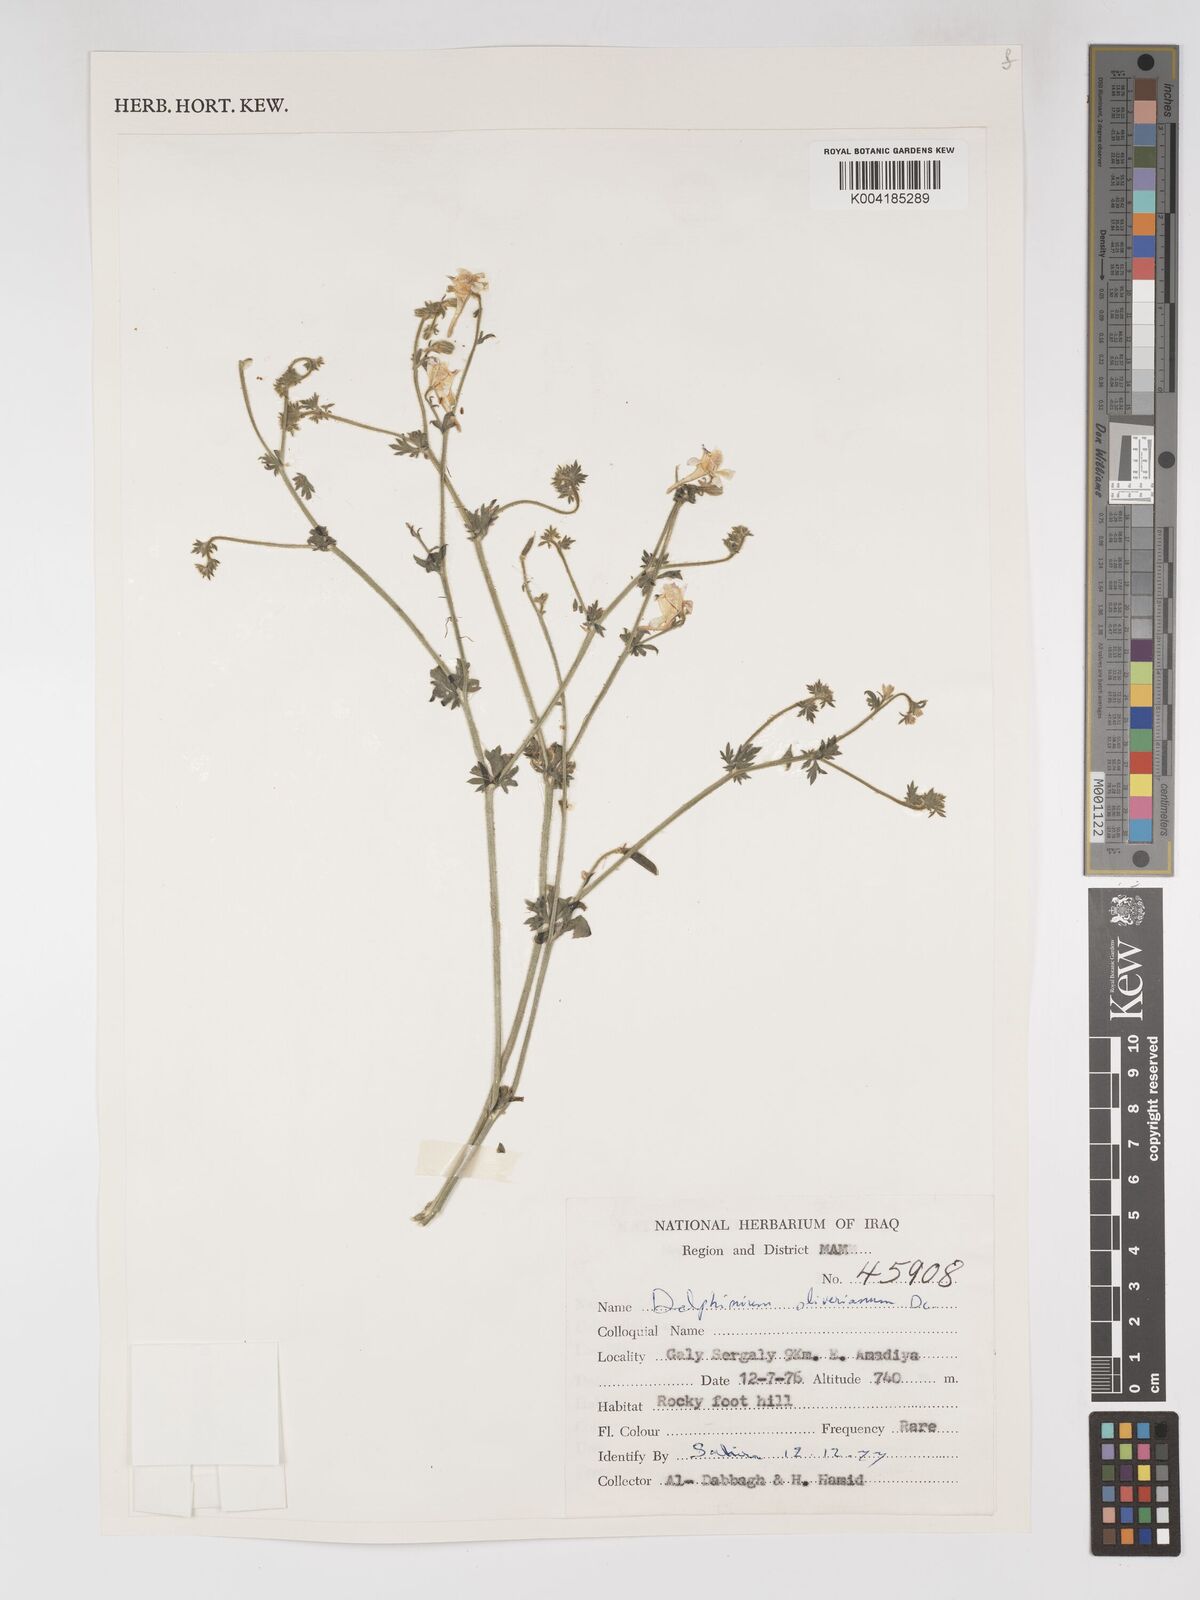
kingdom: Plantae
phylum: Tracheophyta
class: Magnoliopsida
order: Ranunculales
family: Ranunculaceae
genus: Delphinium
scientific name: Delphinium oliverianum
